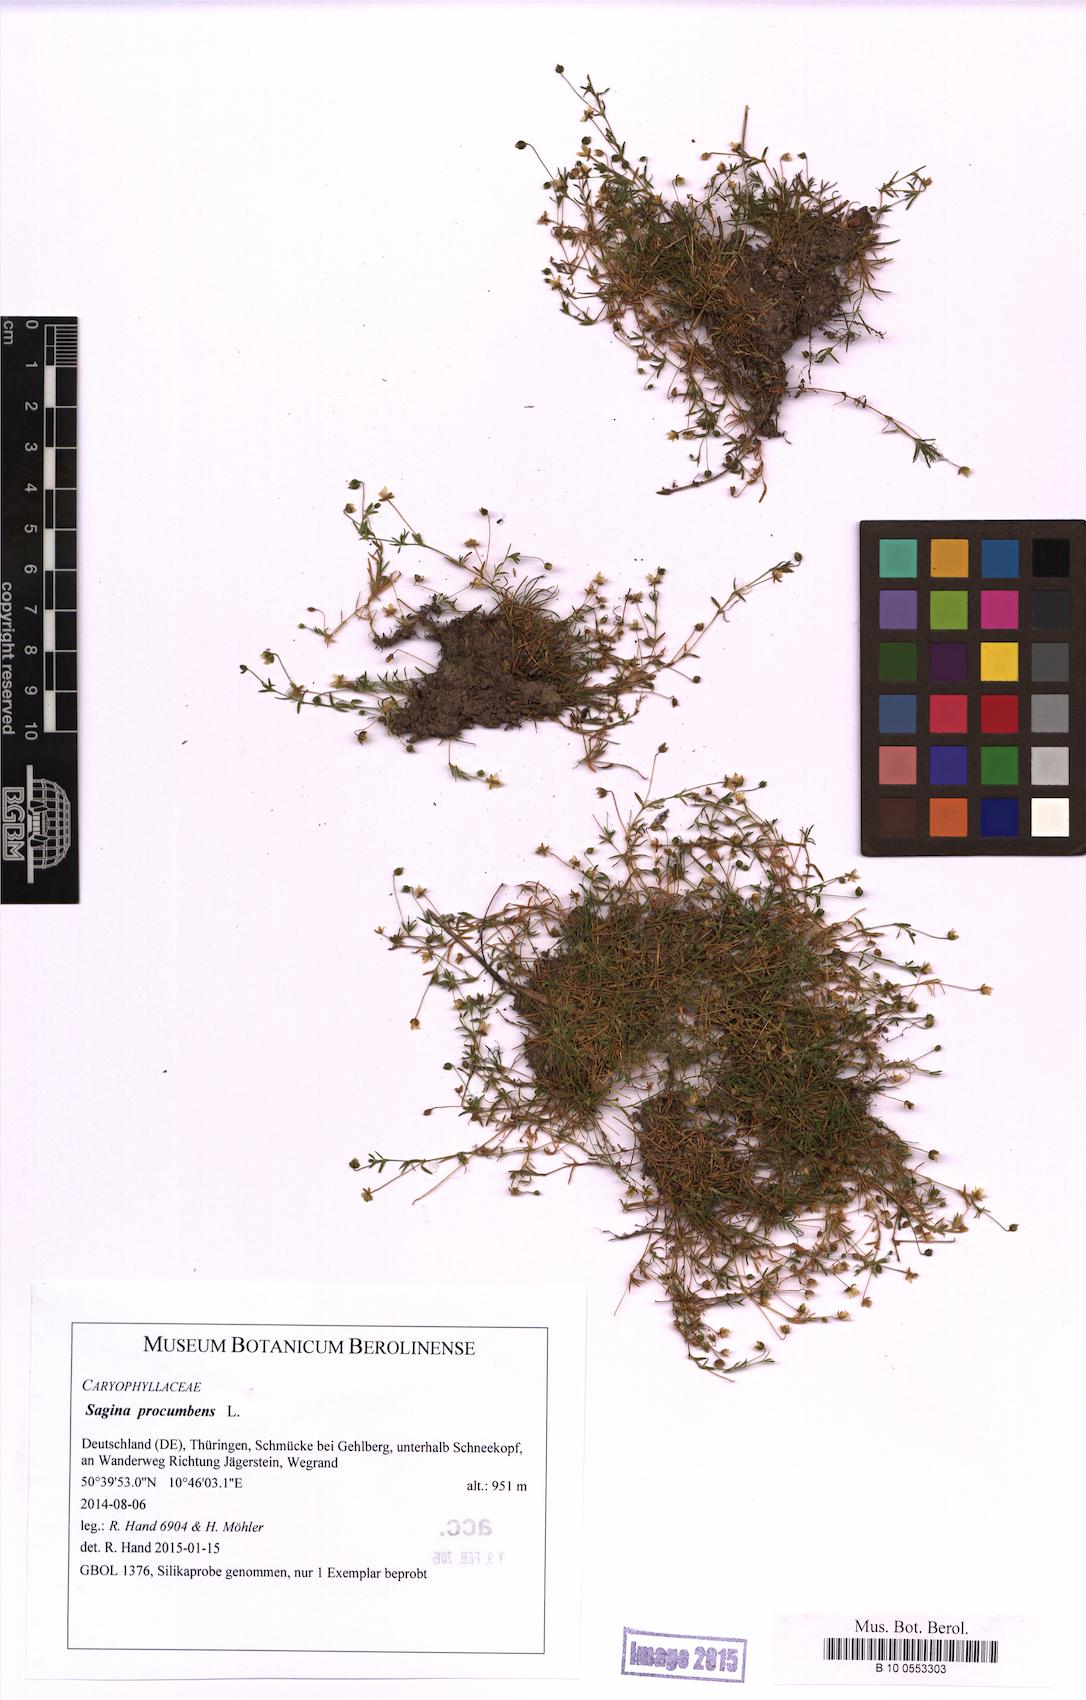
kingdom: Plantae
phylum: Tracheophyta
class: Magnoliopsida
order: Caryophyllales
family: Caryophyllaceae
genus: Sagina
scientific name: Sagina procumbens
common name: Procumbent pearlwort
